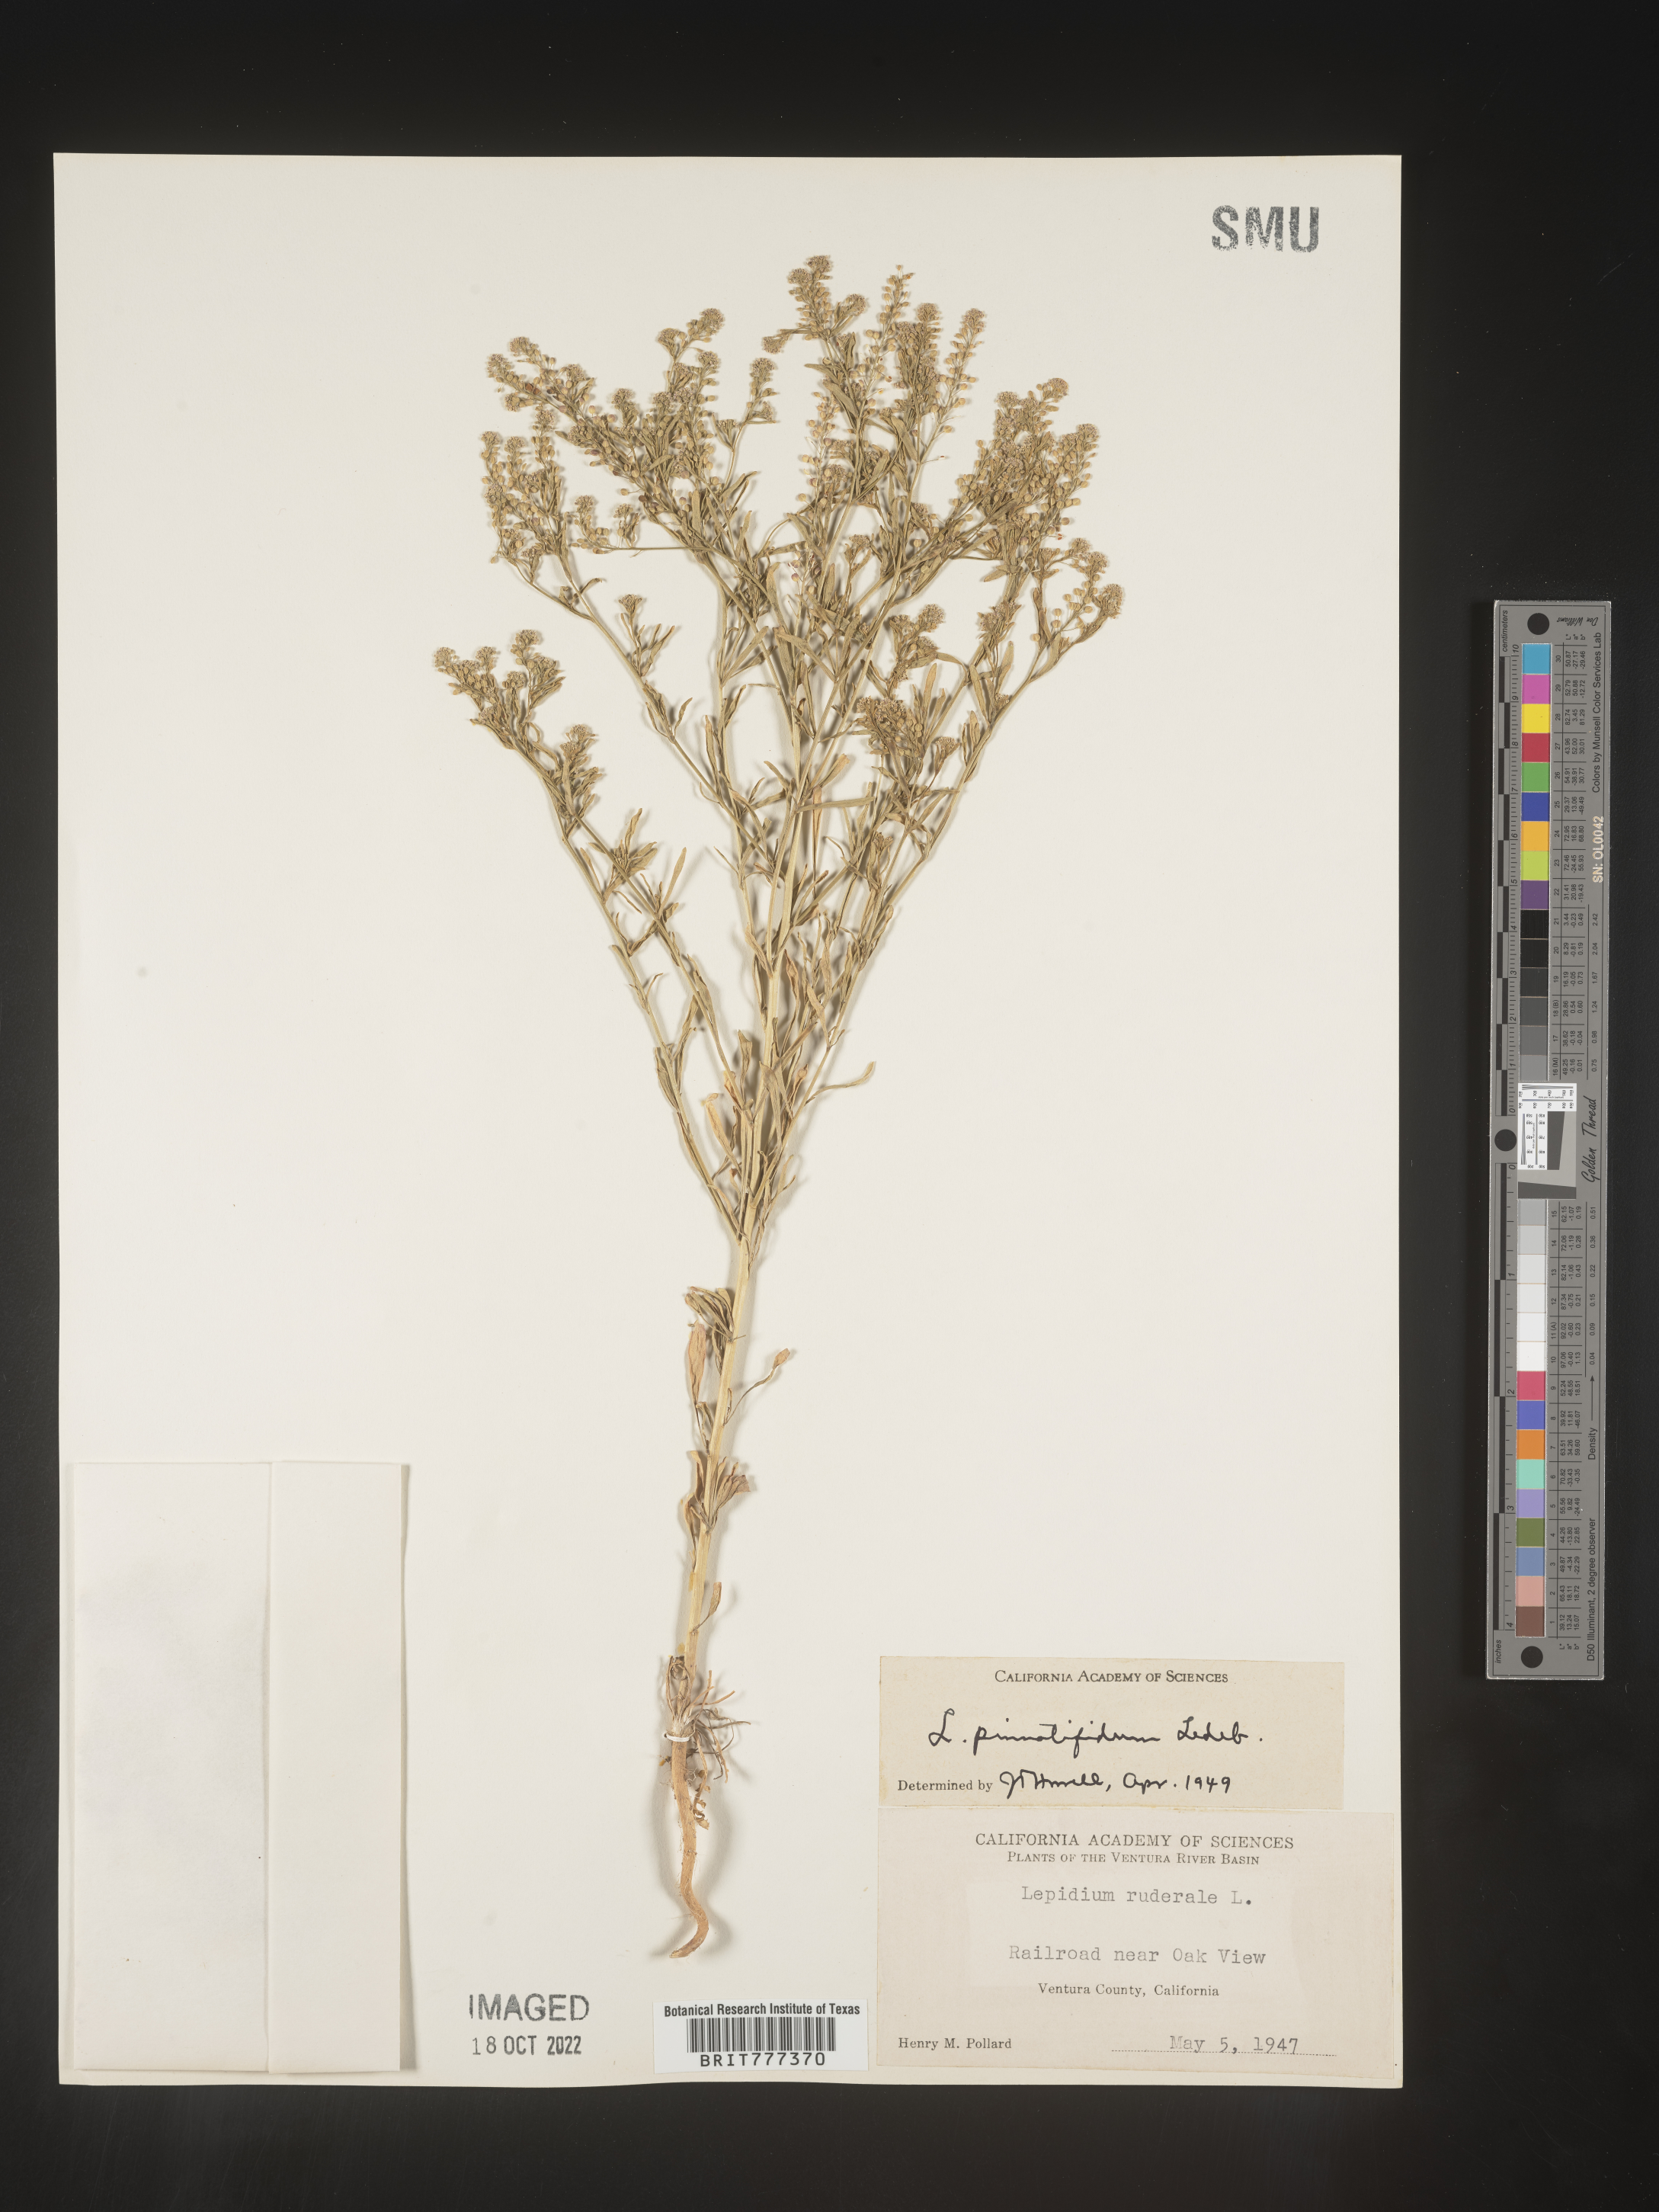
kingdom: Plantae
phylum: Tracheophyta
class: Magnoliopsida
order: Brassicales
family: Brassicaceae
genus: Lepidium
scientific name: Lepidium
